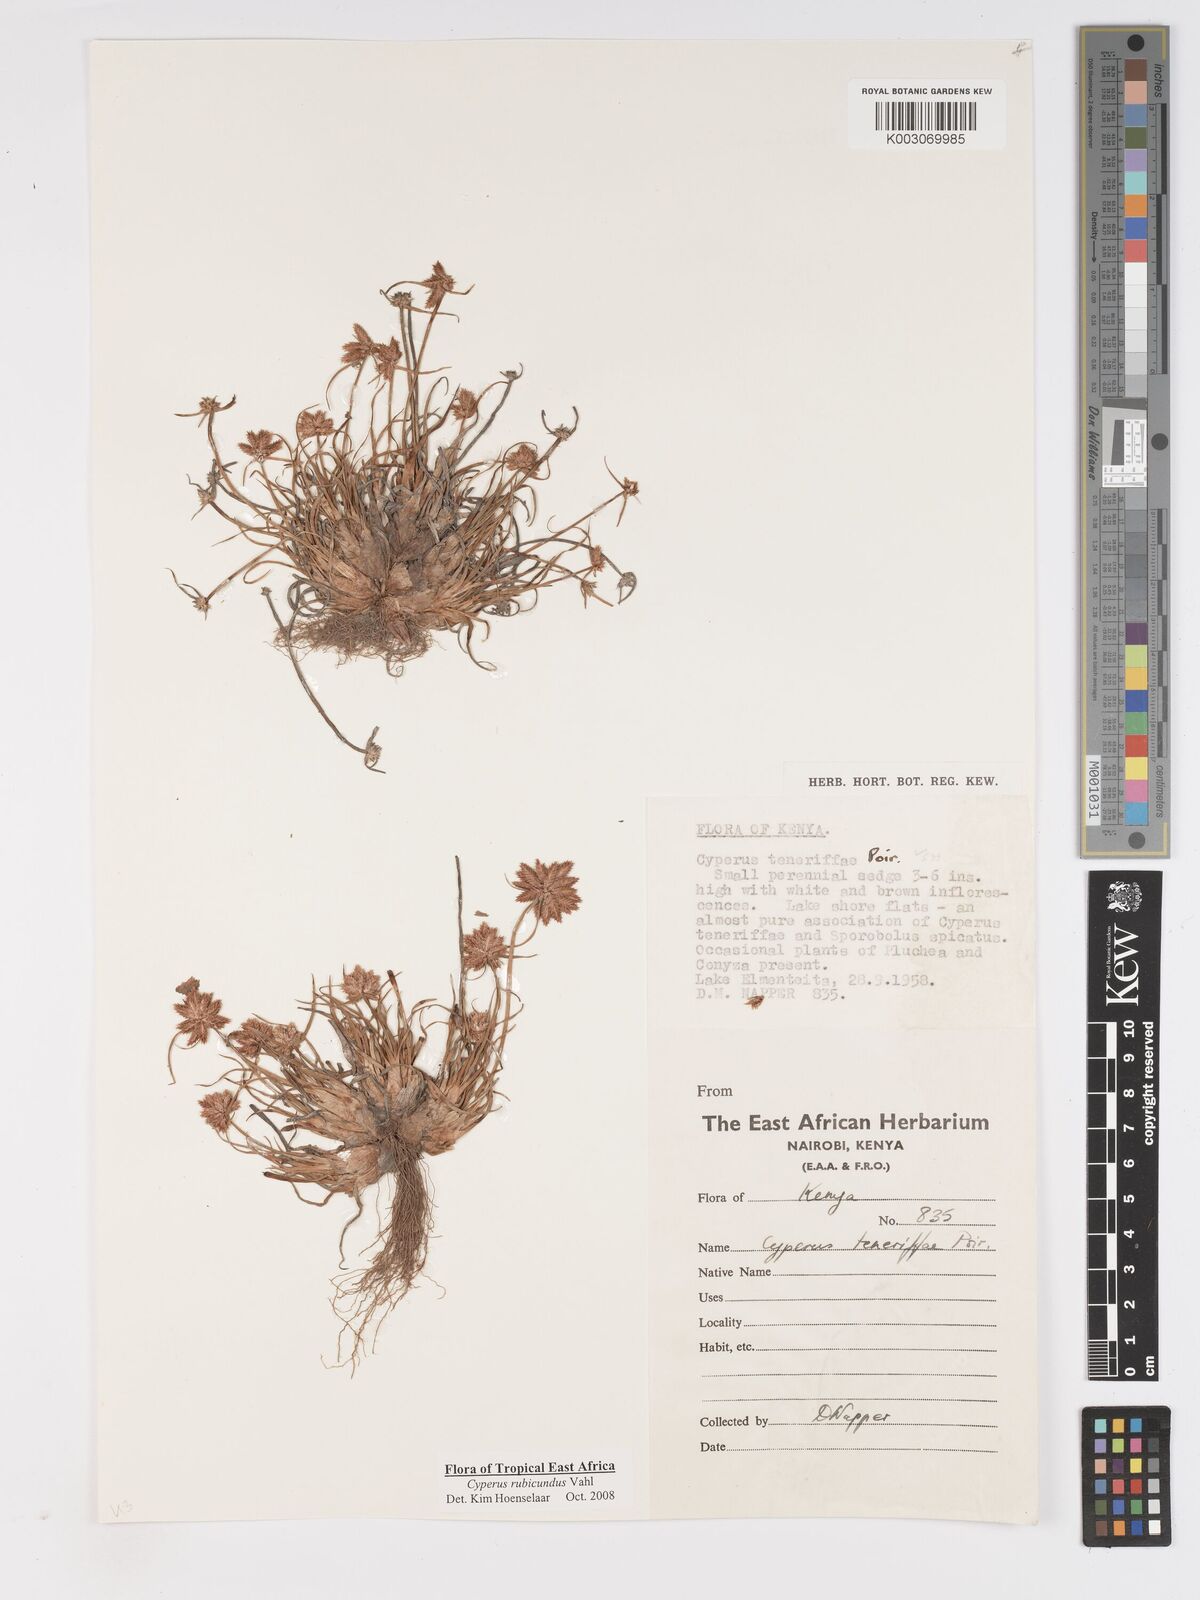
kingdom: Plantae
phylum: Tracheophyta
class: Liliopsida
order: Poales
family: Cyperaceae
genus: Cyperus
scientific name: Cyperus rubicundus
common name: Coco-grass
